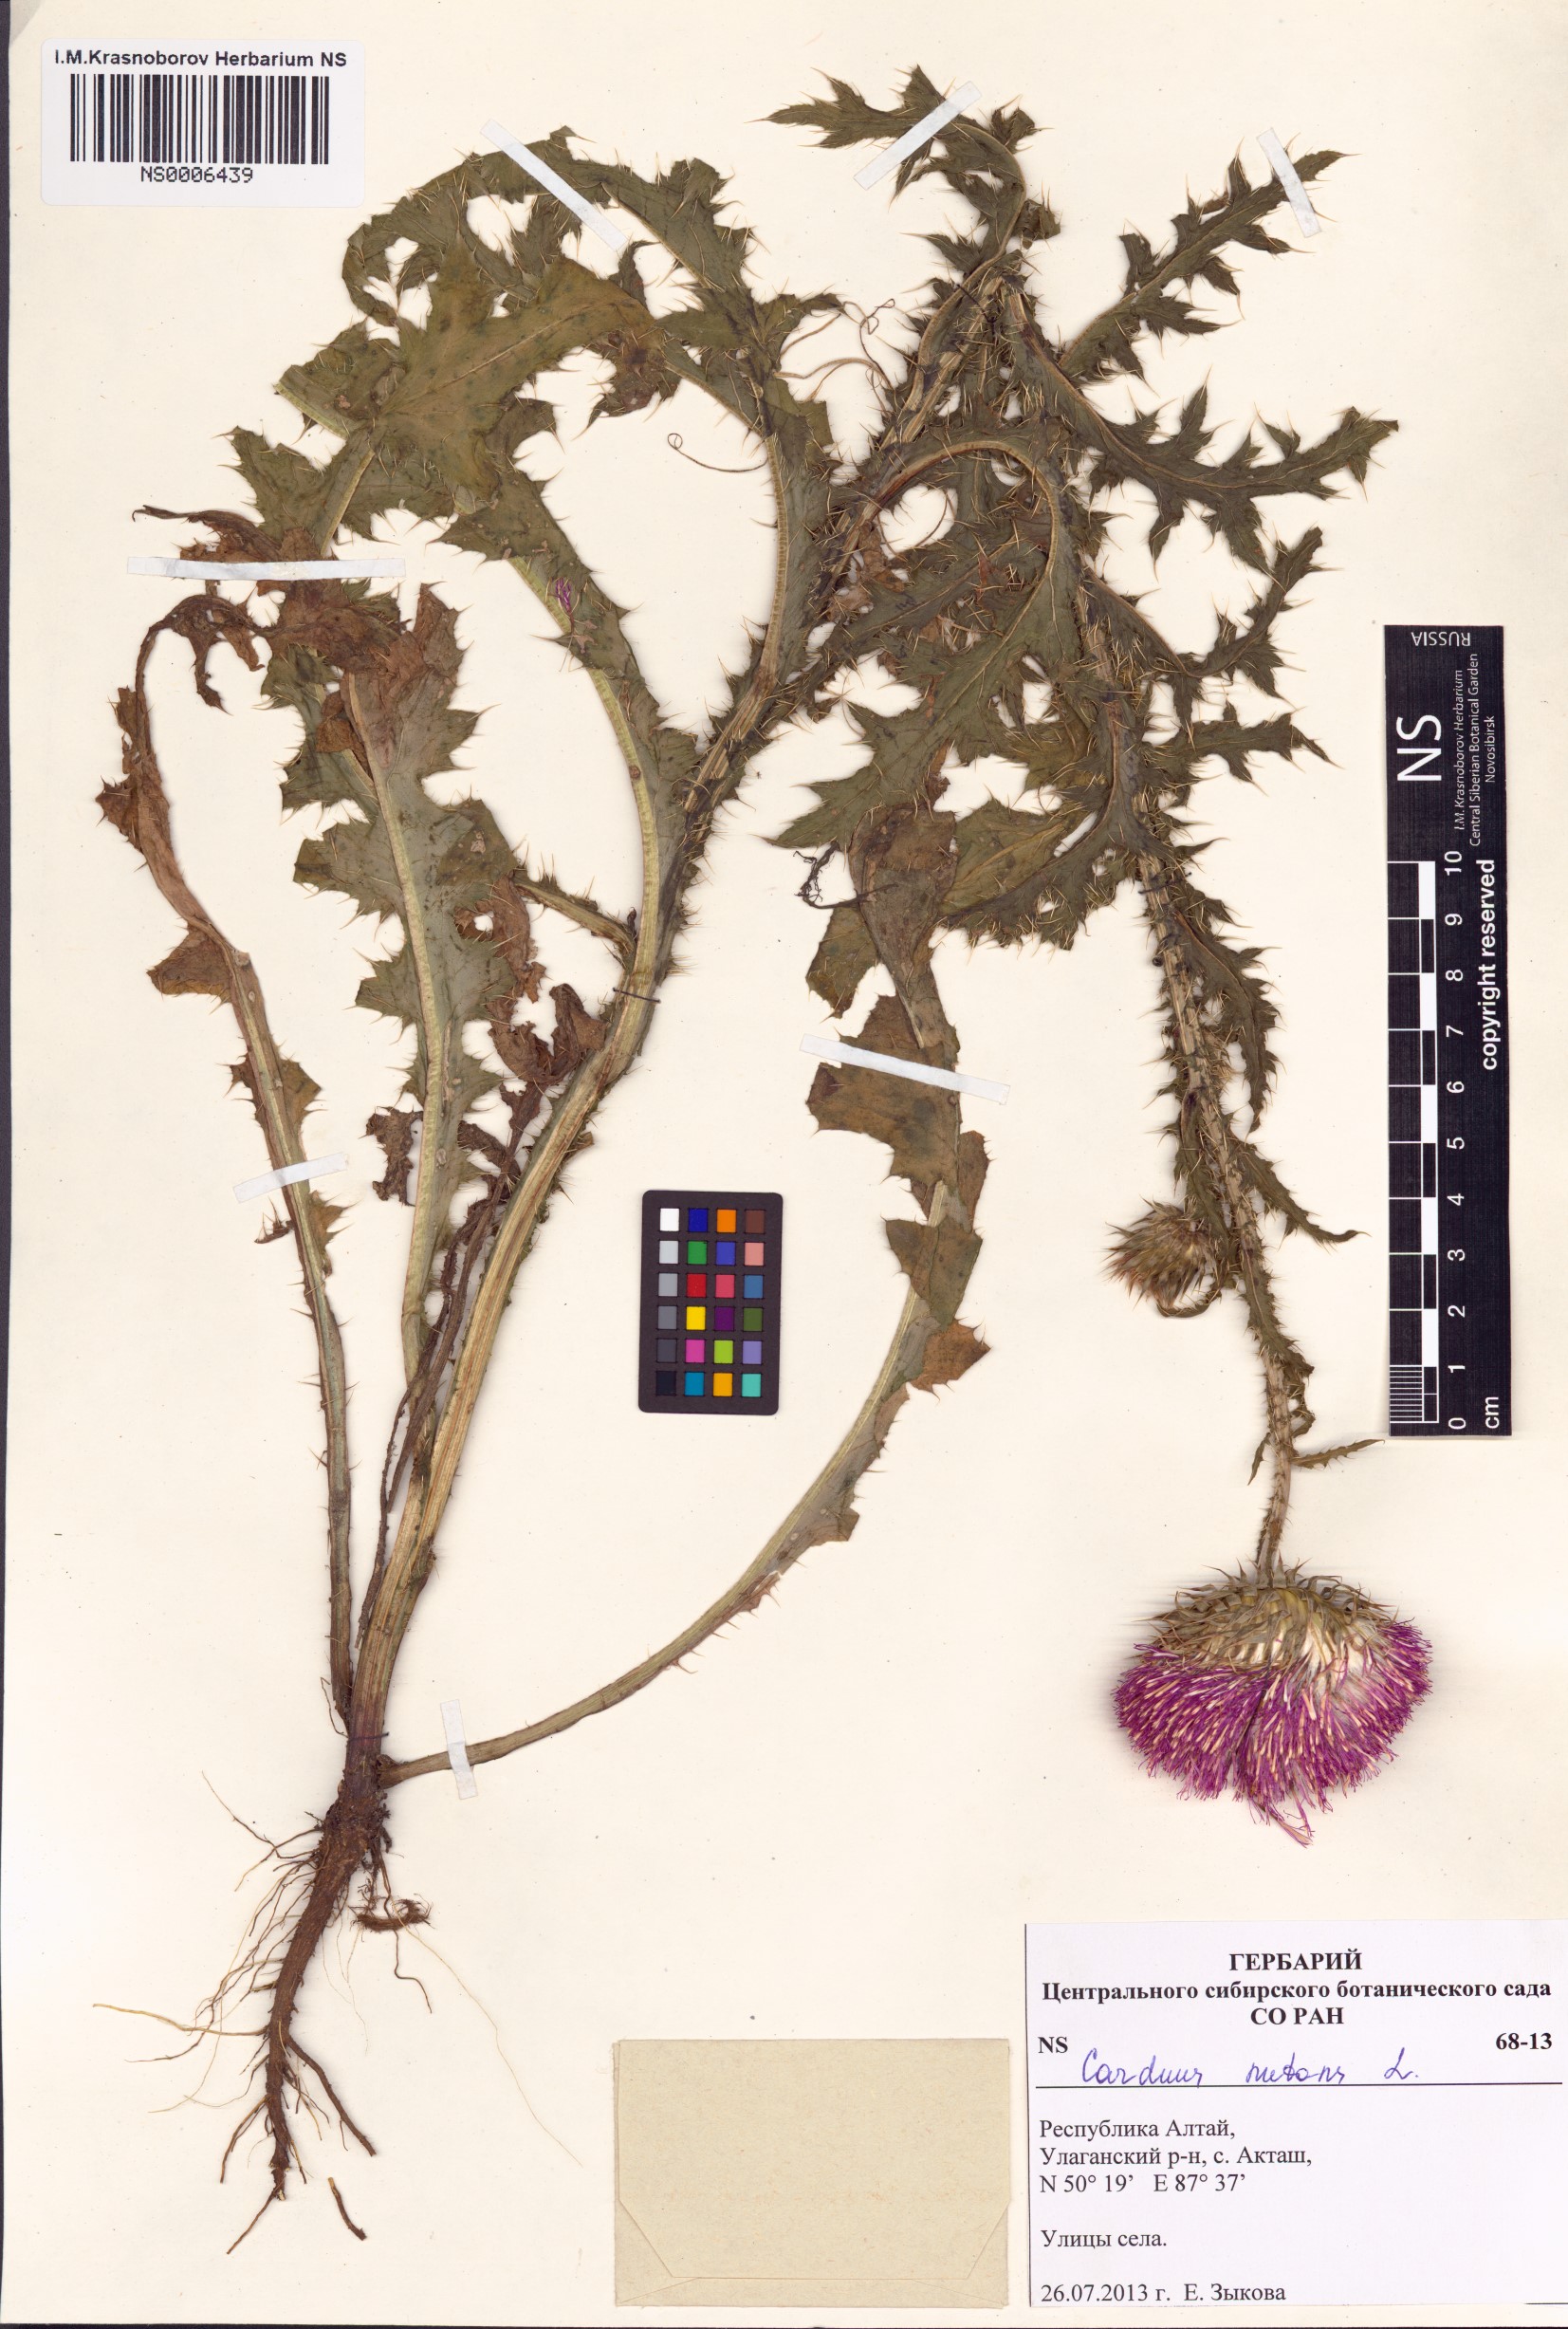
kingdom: Plantae
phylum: Tracheophyta
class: Magnoliopsida
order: Asterales
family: Asteraceae
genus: Carduus
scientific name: Carduus nutans
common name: Musk thistle
